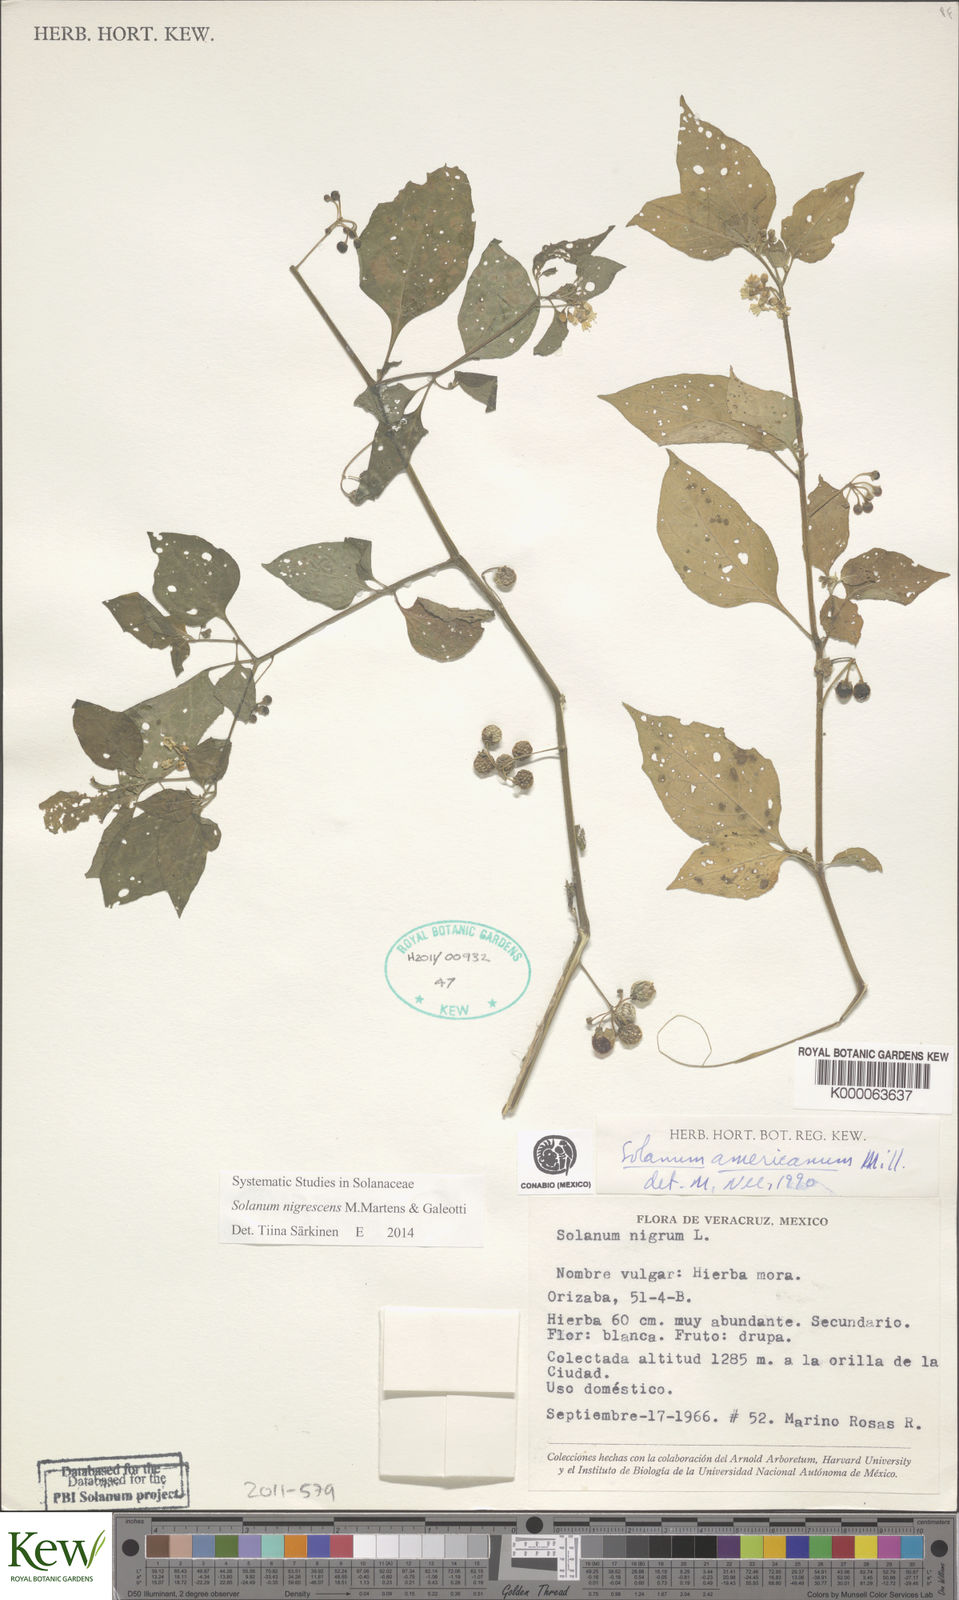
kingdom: Plantae
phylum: Tracheophyta
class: Magnoliopsida
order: Solanales
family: Solanaceae
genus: Solanum
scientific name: Solanum americanum
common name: American black nightshade
